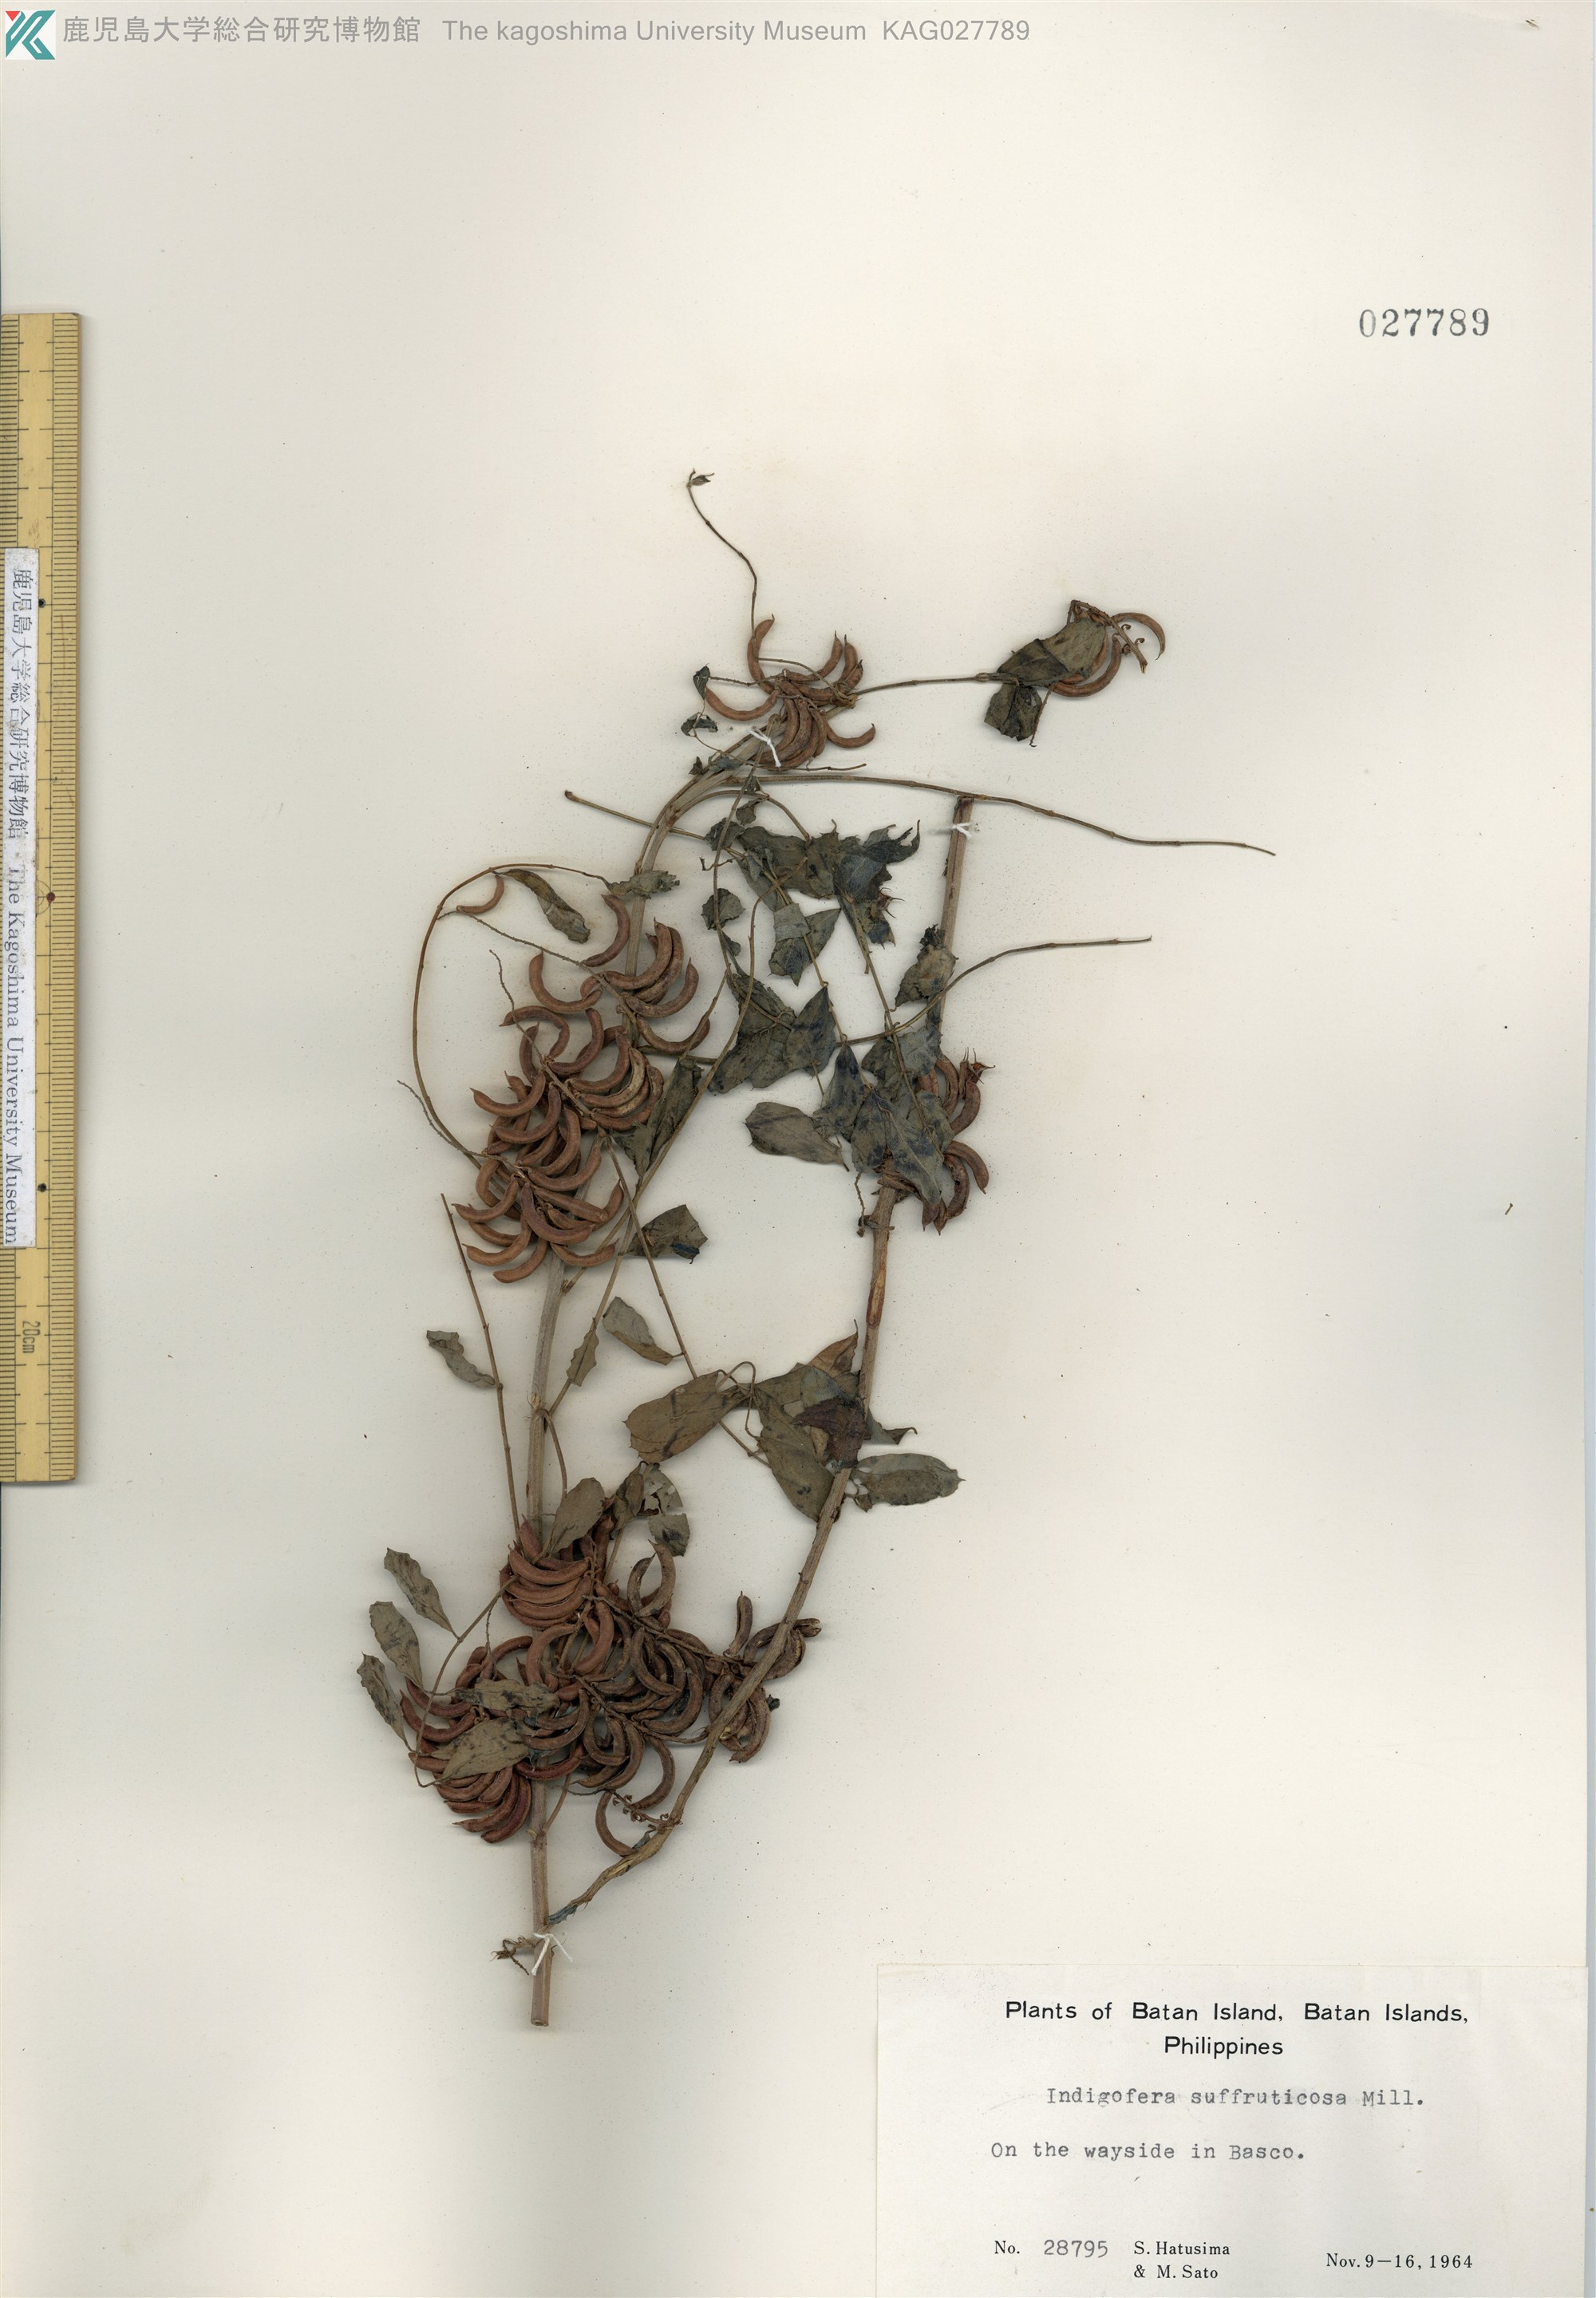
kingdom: Plantae
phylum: Tracheophyta
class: Magnoliopsida
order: Fabales
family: Fabaceae
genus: Indigofera
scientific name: Indigofera suffruticosa
